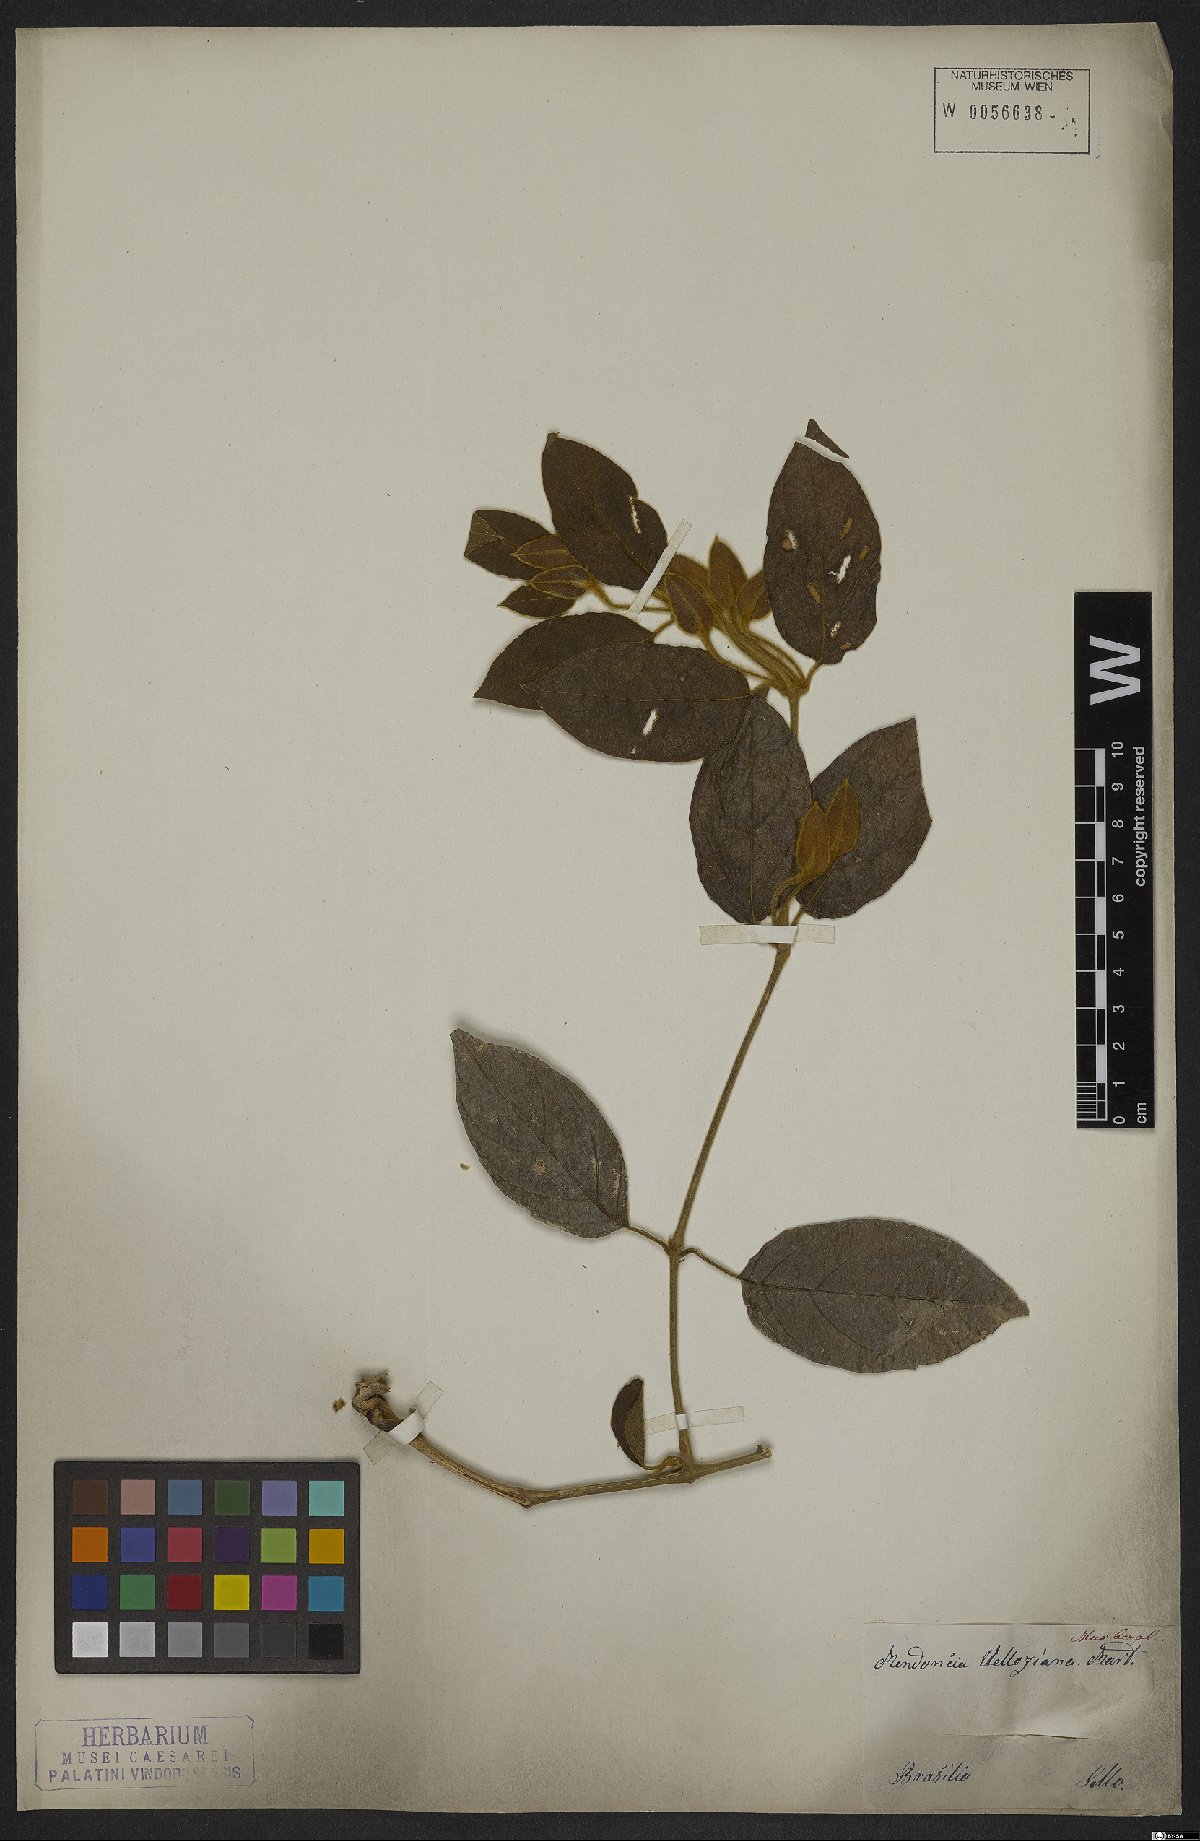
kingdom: Plantae
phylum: Tracheophyta
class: Magnoliopsida
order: Lamiales
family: Acanthaceae
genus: Mendoncia
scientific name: Mendoncia velloziana
